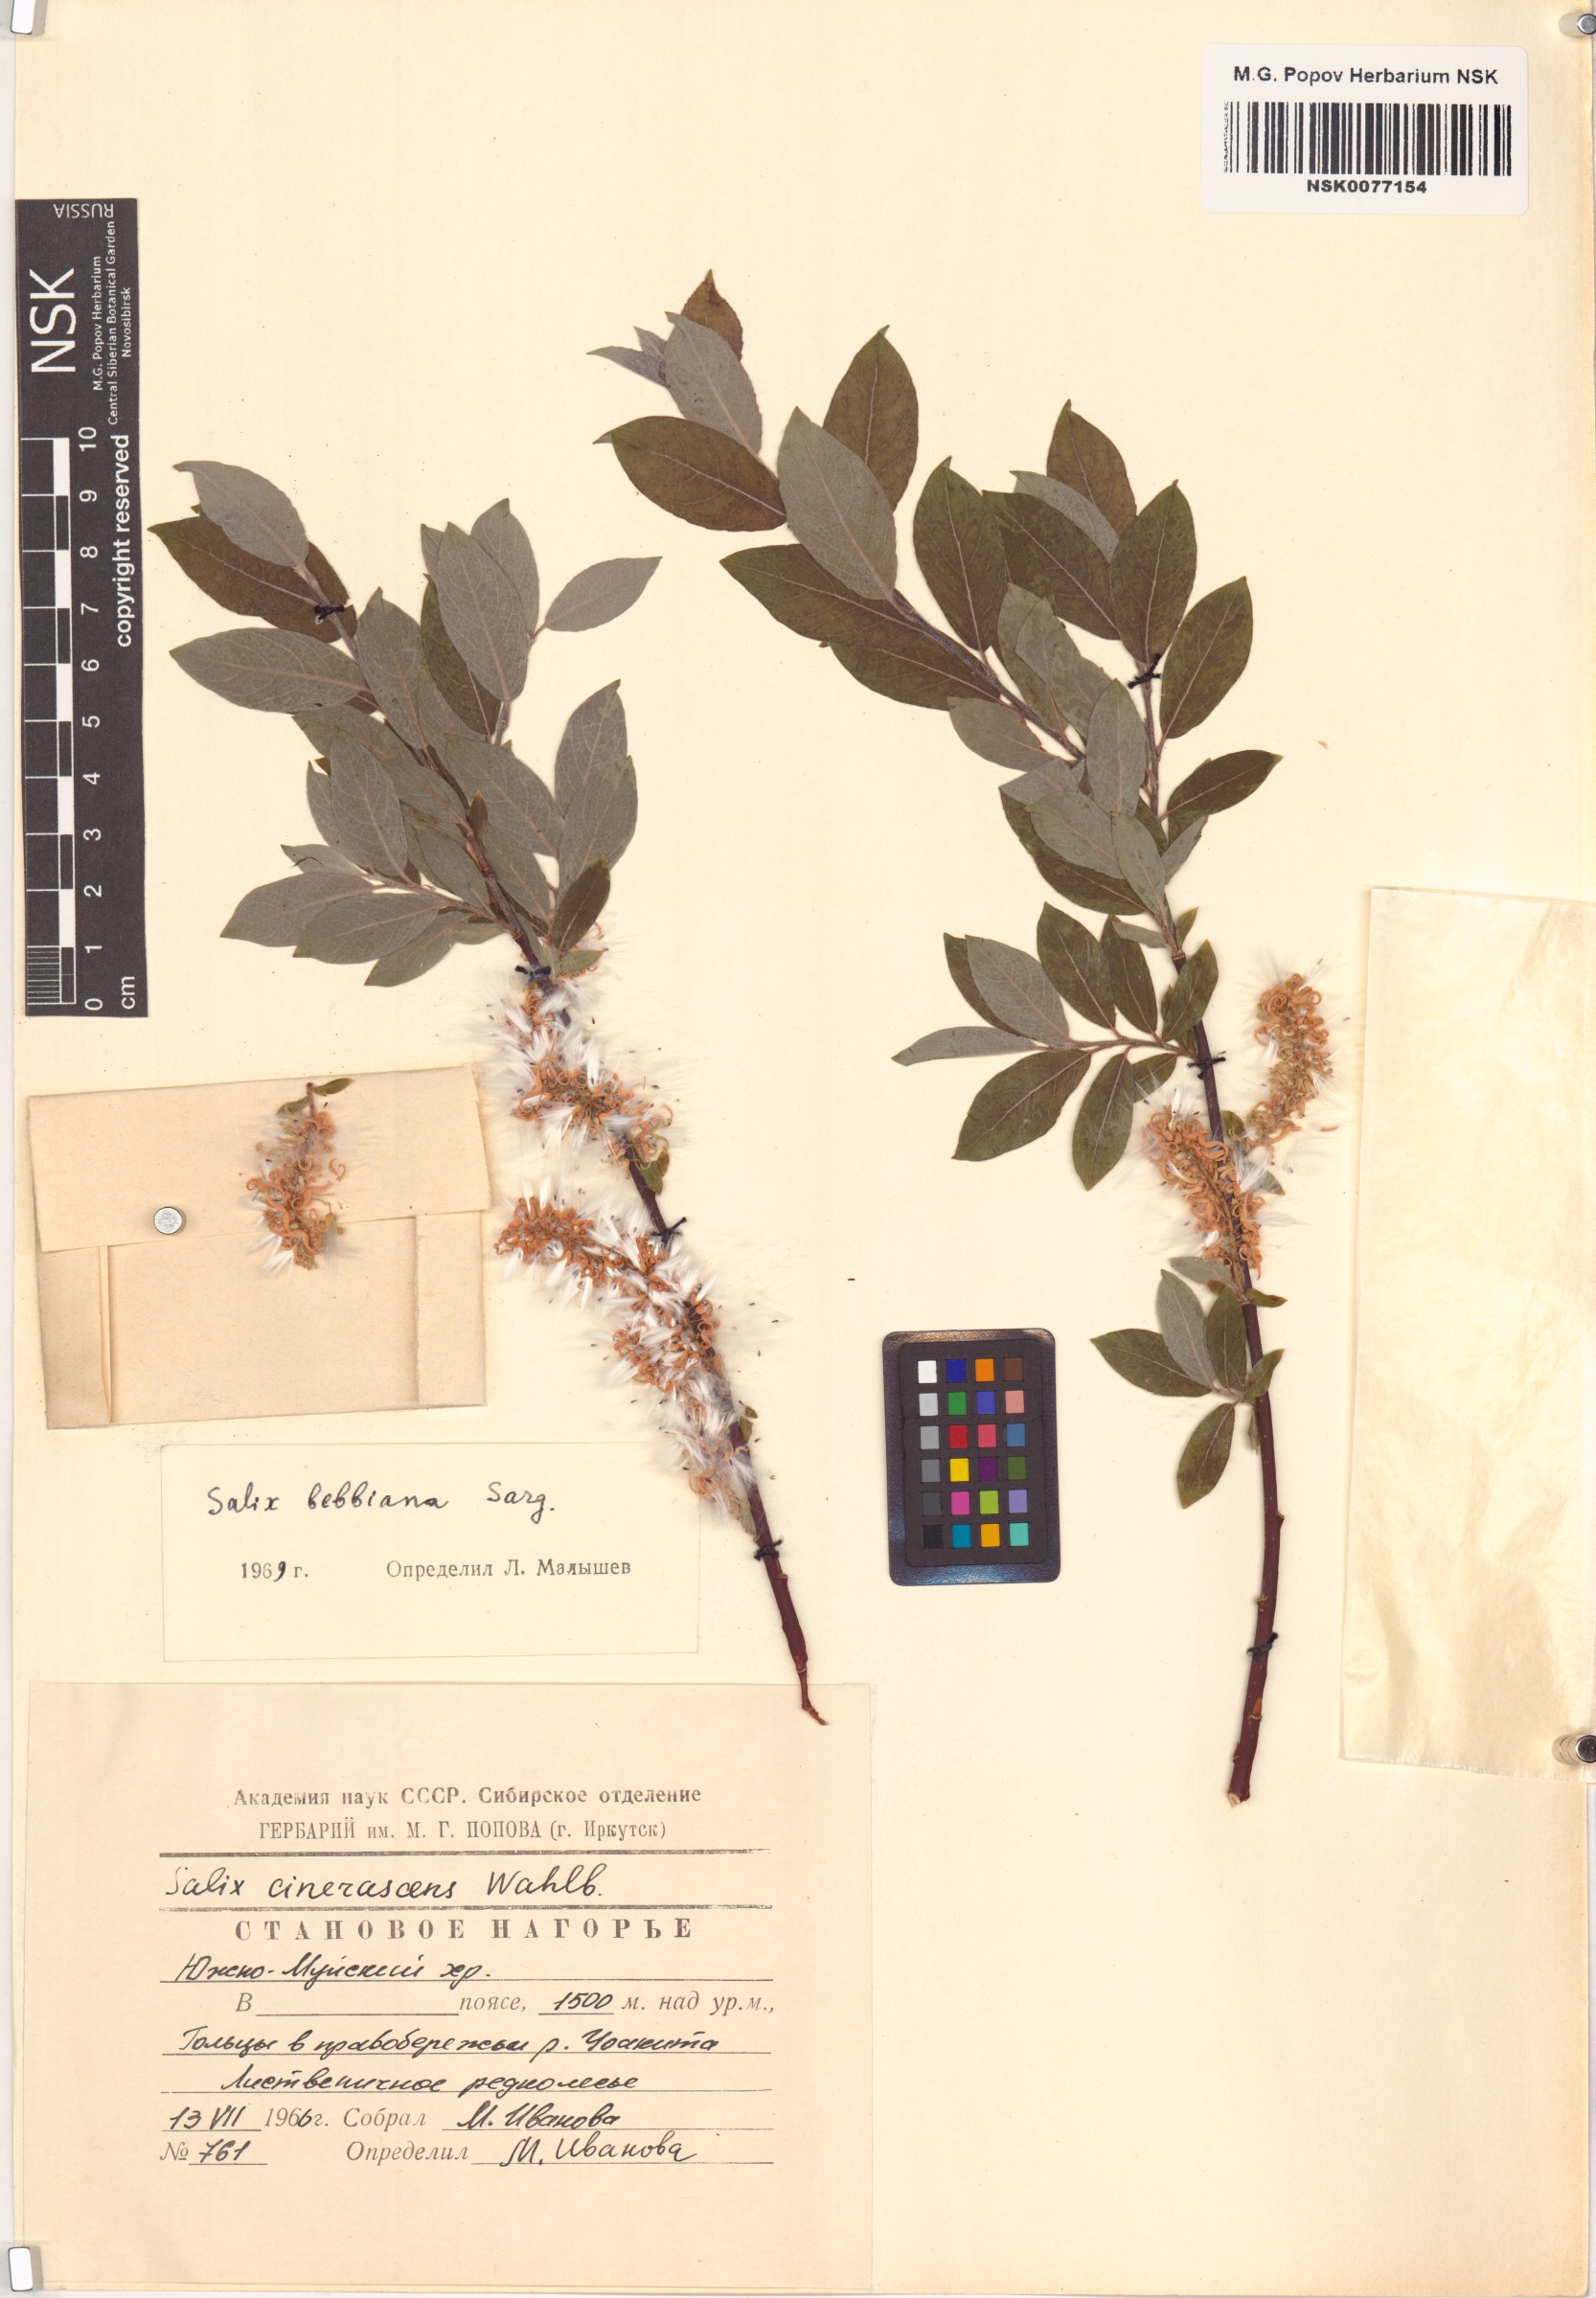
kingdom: Plantae
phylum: Tracheophyta
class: Magnoliopsida
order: Malpighiales
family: Salicaceae
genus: Salix
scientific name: Salix bebbiana
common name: Bebb's willow
